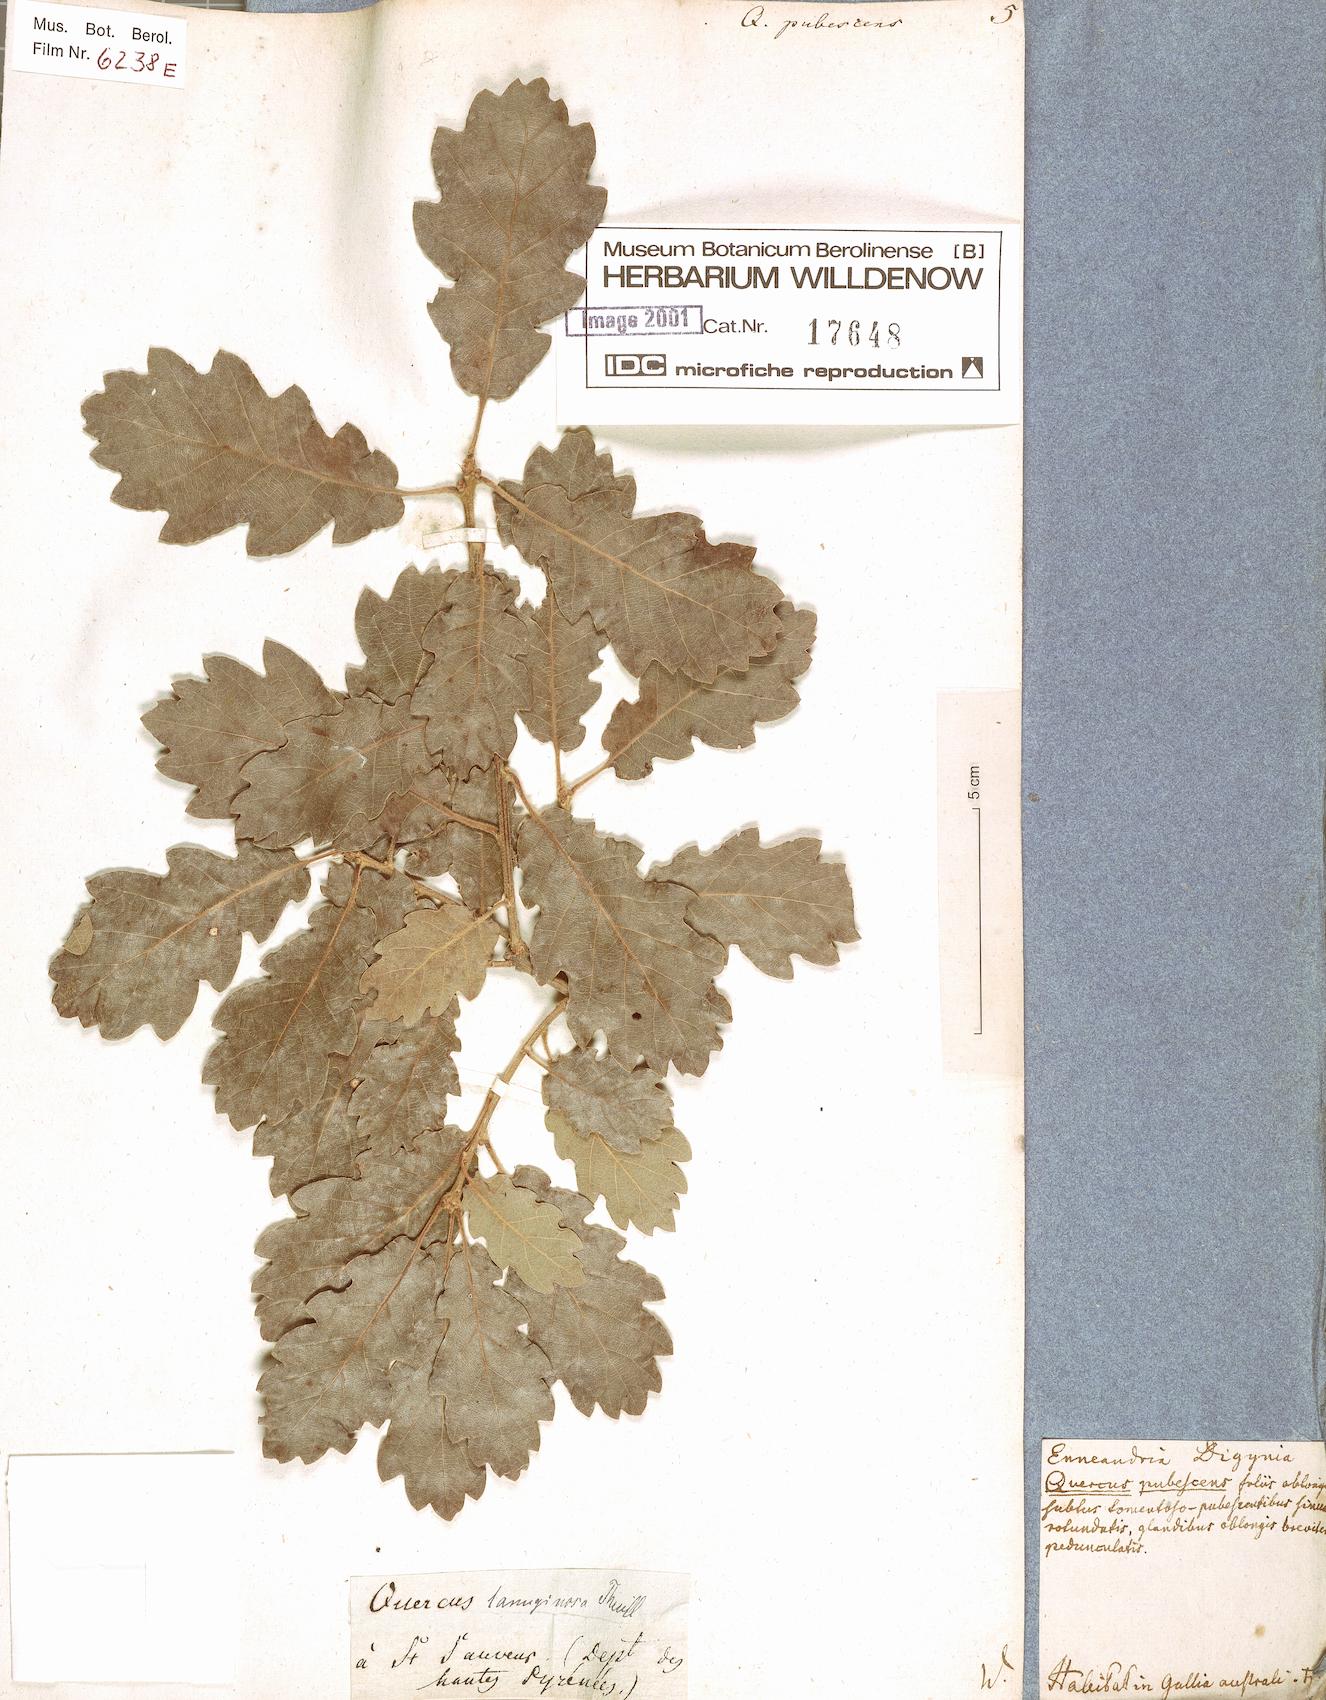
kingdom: Plantae
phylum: Tracheophyta
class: Magnoliopsida
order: Fagales
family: Fagaceae
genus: Quercus
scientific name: Quercus pubescens
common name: Downy oak
